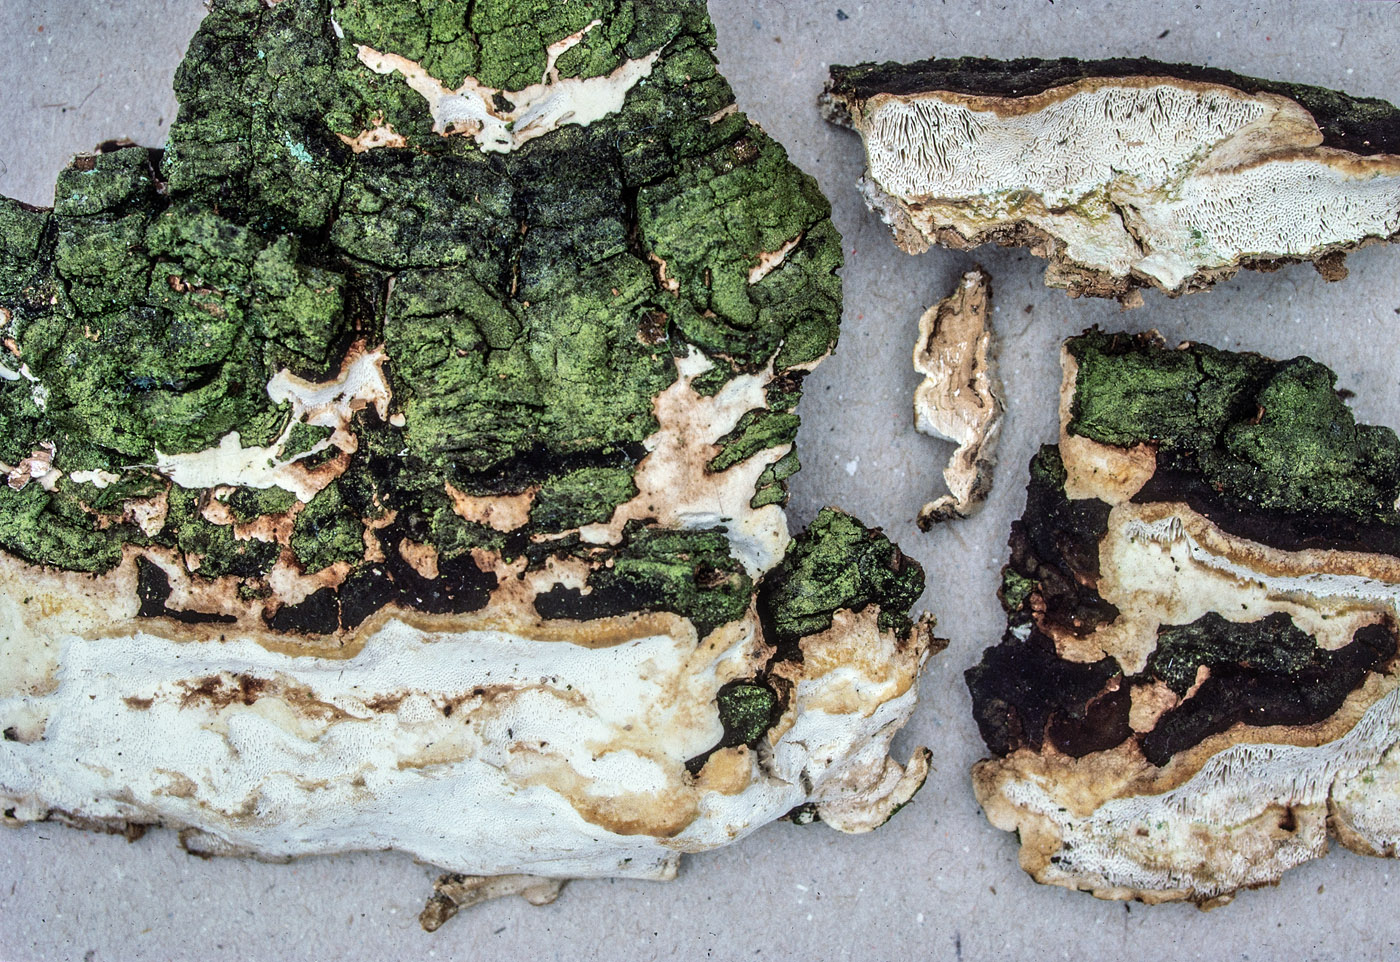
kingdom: Fungi
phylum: Basidiomycota
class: Agaricomycetes
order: Polyporales
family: Polyporaceae
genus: Perenniporia
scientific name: Perenniporia medulla-panis
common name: krumme-kanelporesvamp
